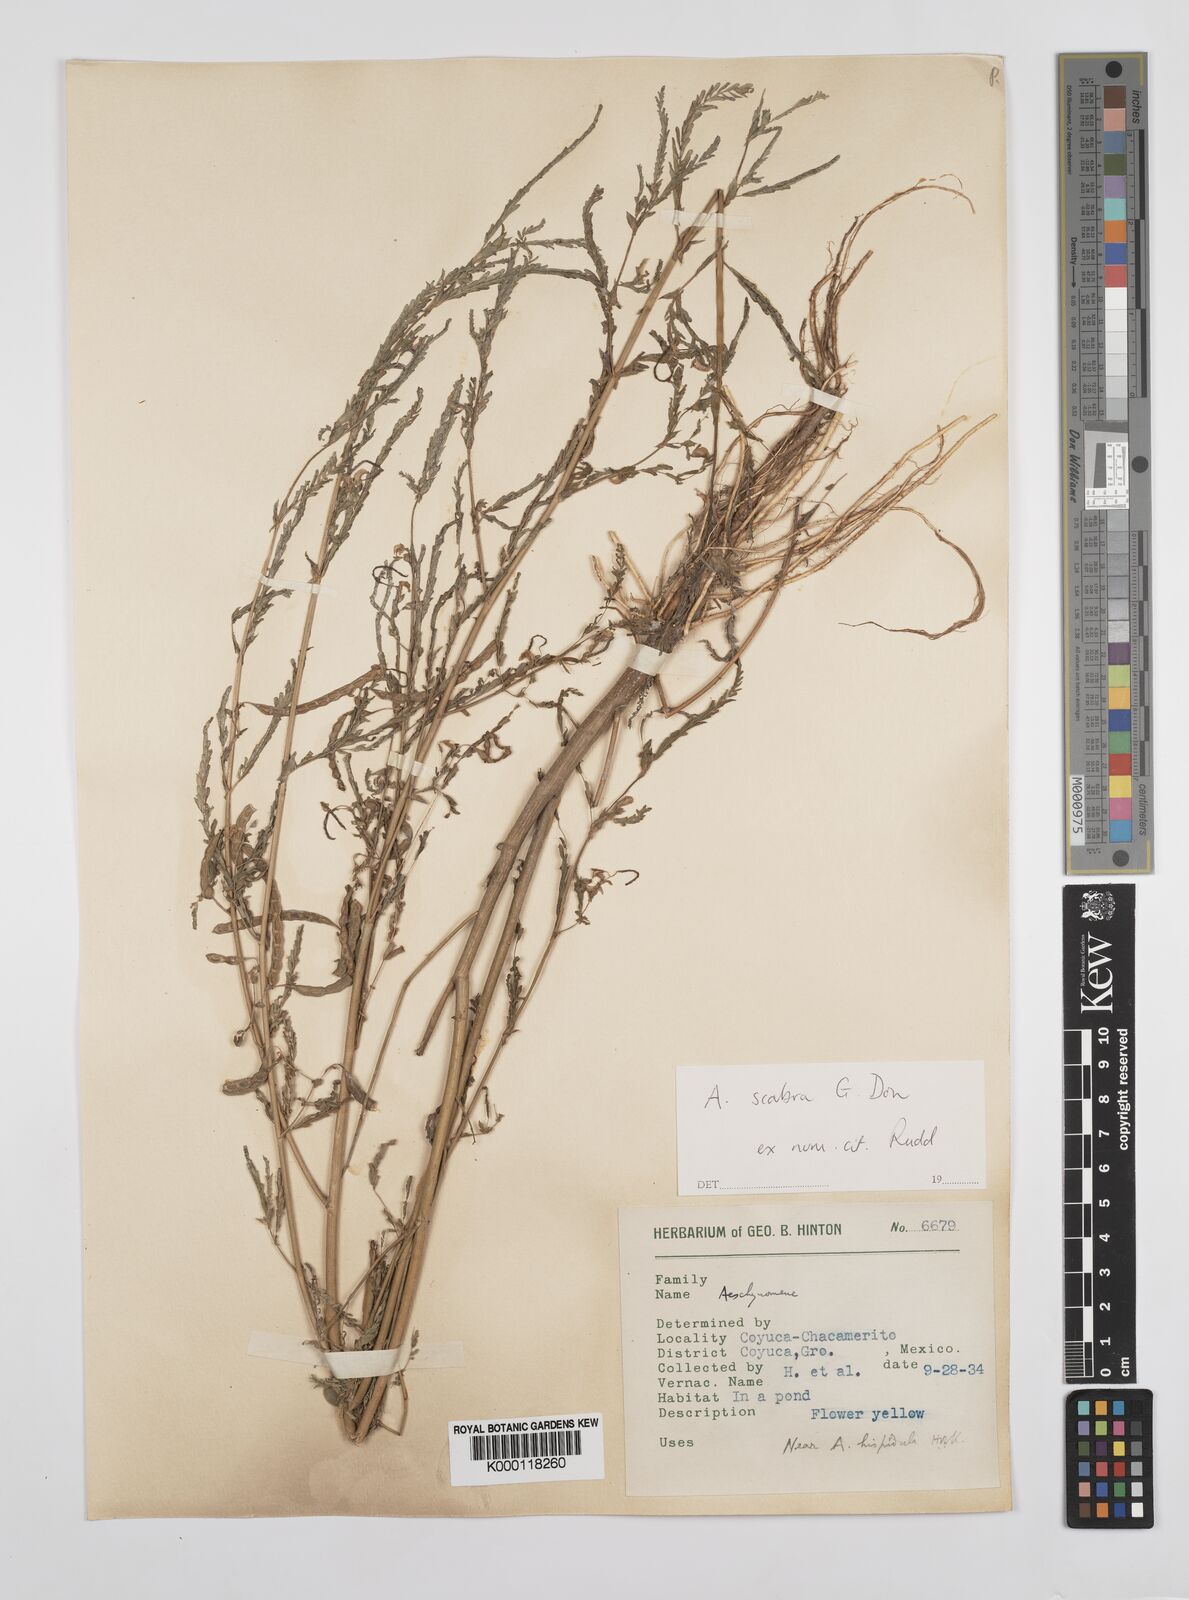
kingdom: Plantae
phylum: Tracheophyta
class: Magnoliopsida
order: Fabales
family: Fabaceae
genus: Aeschynomene
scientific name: Aeschynomene scabra
